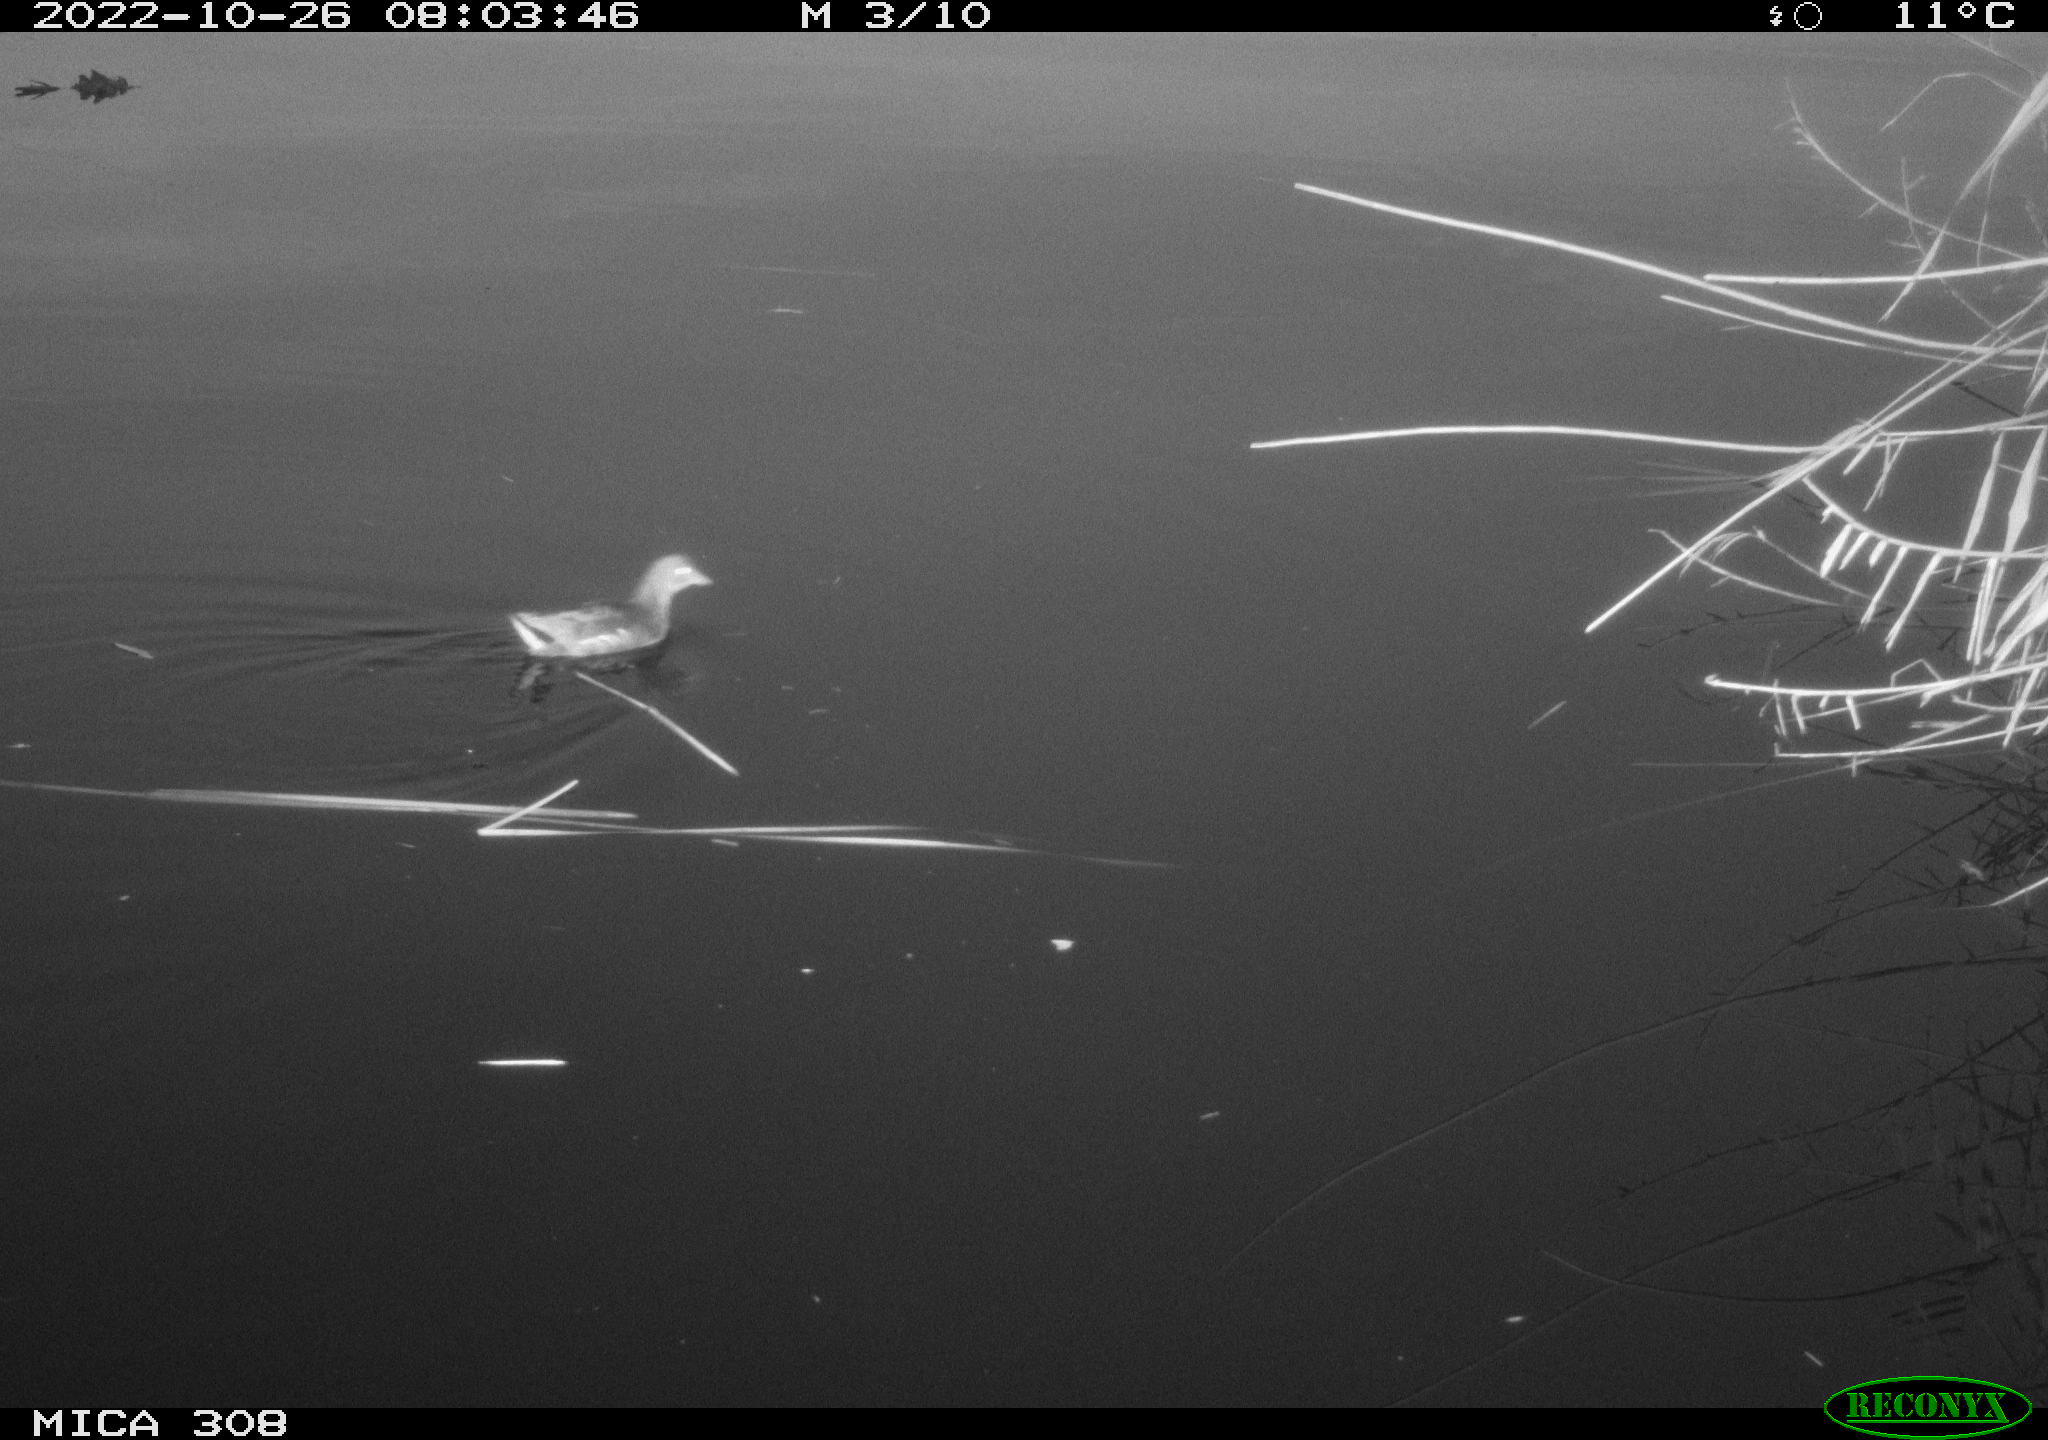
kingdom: Animalia
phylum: Chordata
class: Aves
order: Gruiformes
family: Rallidae
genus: Gallinula
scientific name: Gallinula chloropus
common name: Common moorhen
